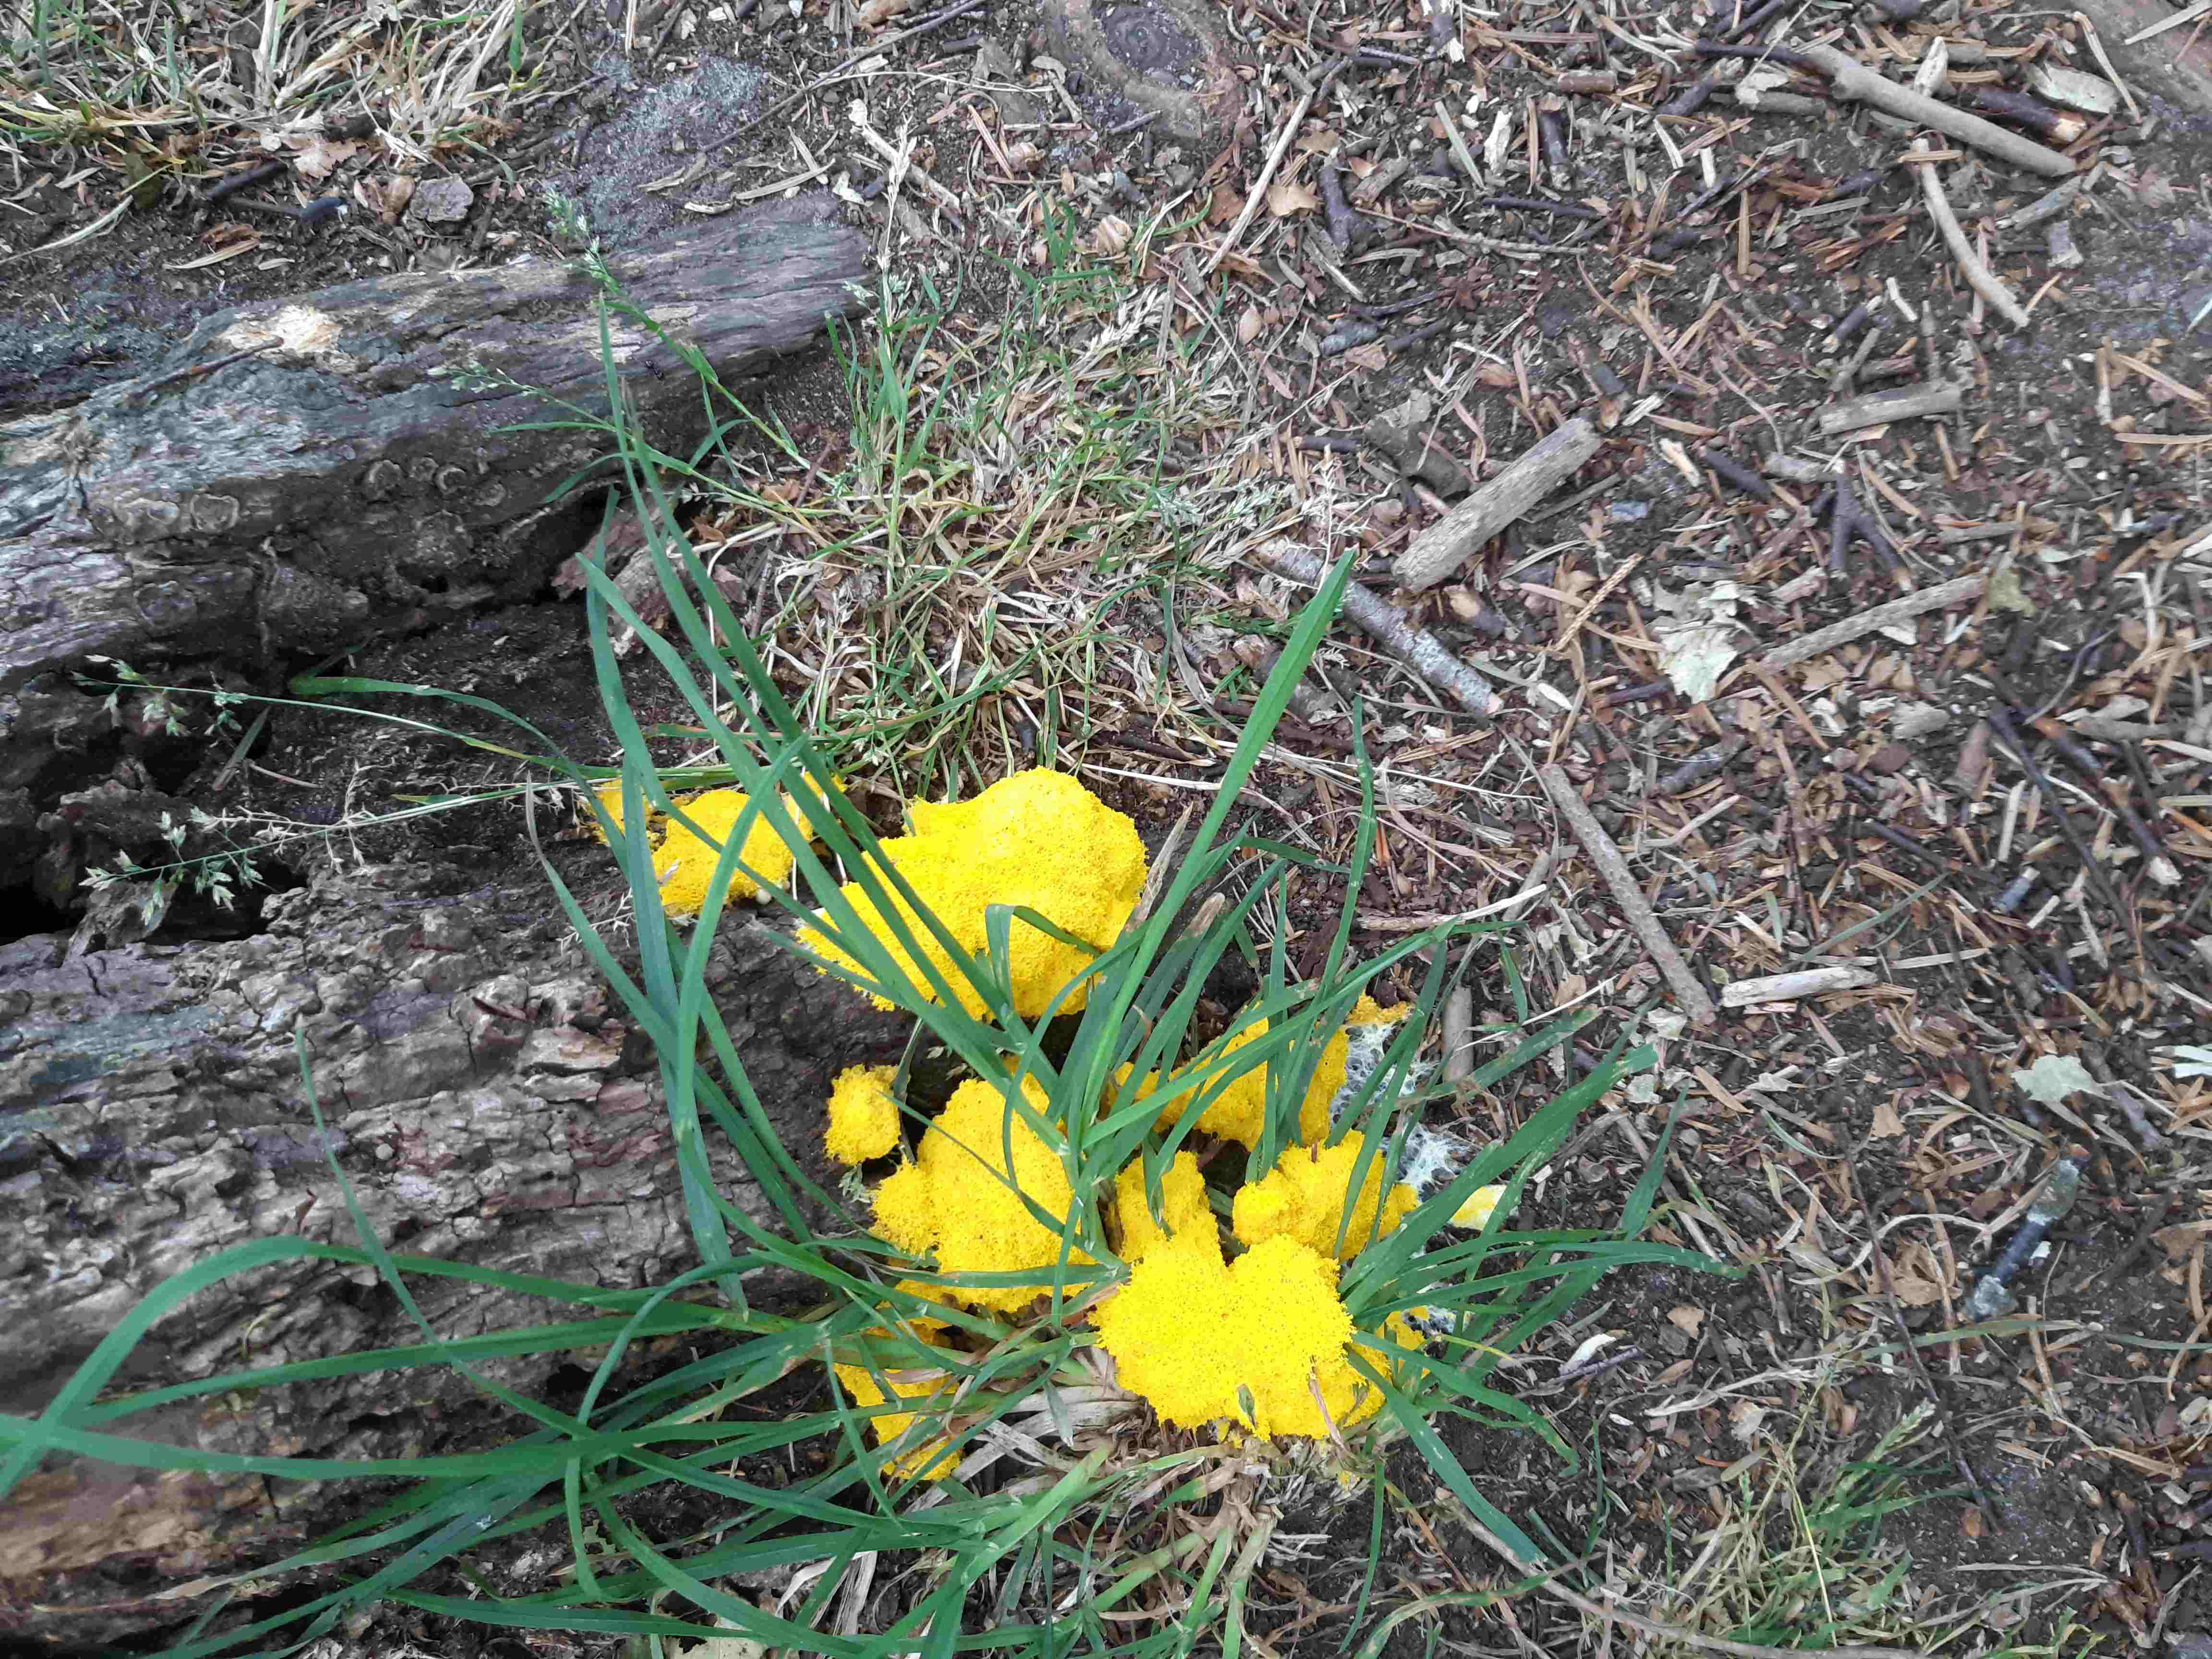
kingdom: Protozoa
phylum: Mycetozoa
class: Myxomycetes
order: Physarales
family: Physaraceae
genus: Fuligo
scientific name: Fuligo septica
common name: gul troldsmør
